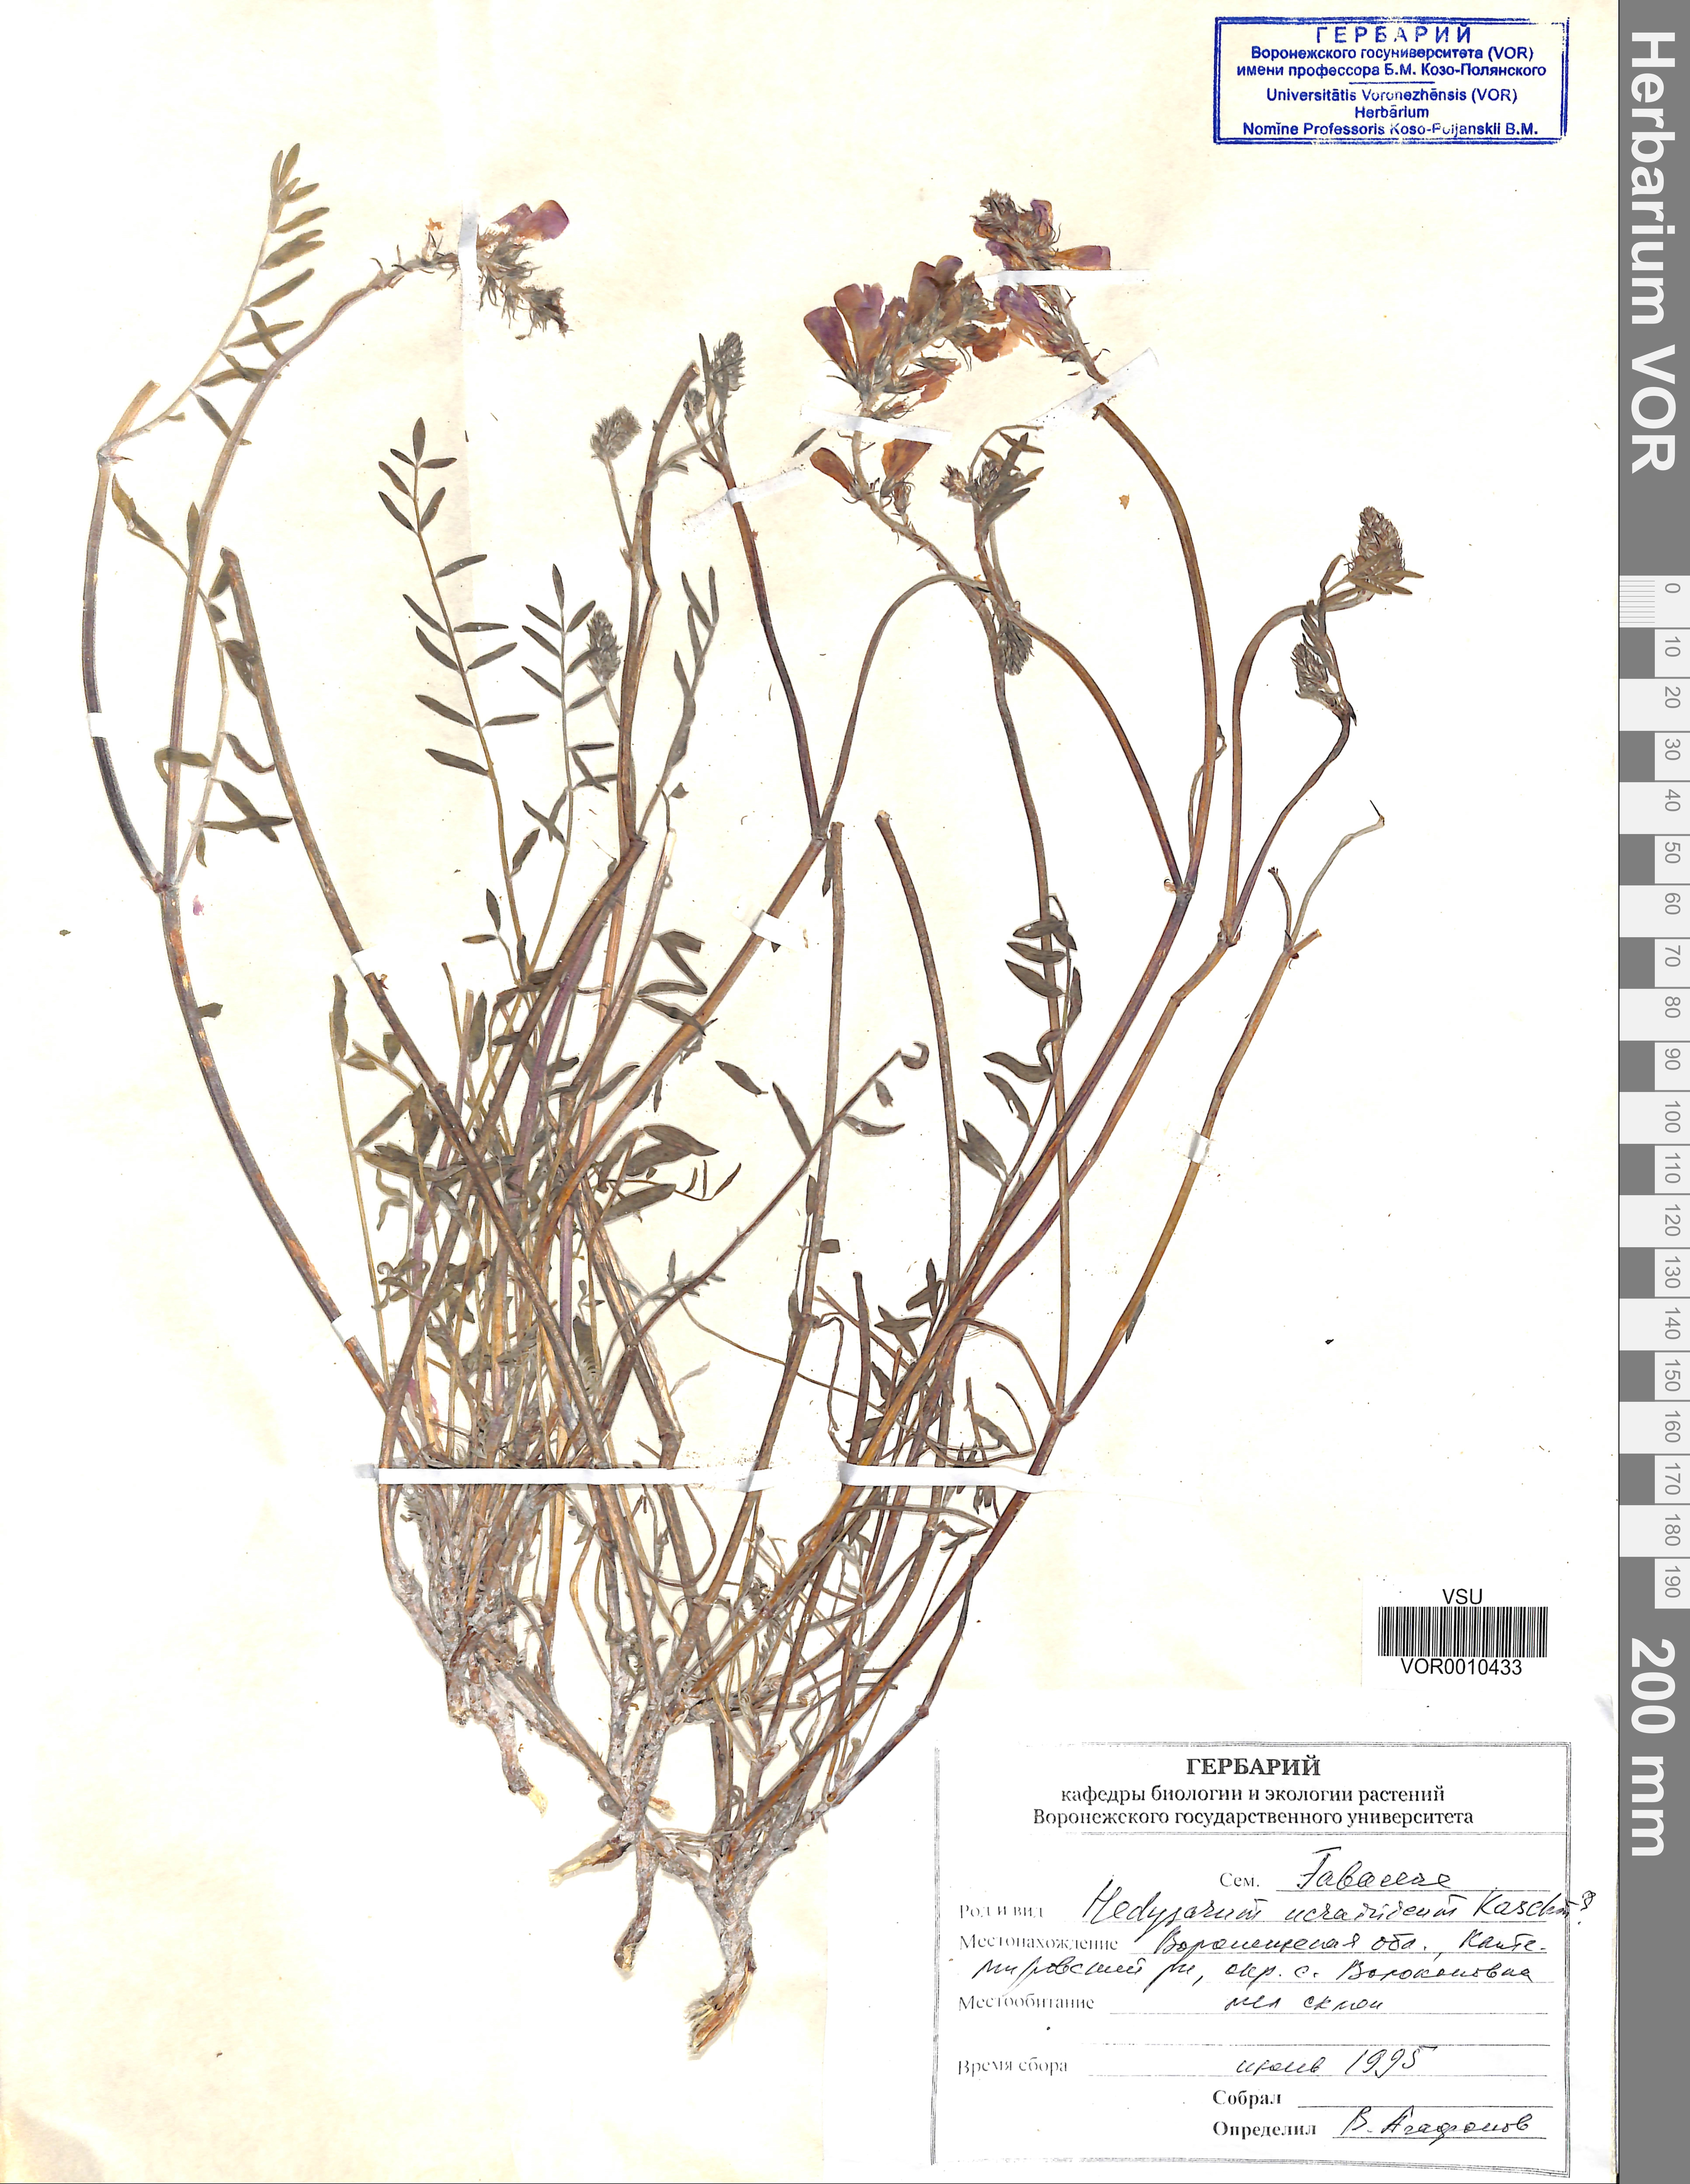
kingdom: Plantae
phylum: Tracheophyta
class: Magnoliopsida
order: Fabales
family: Fabaceae
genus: Hedysarum
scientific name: Hedysarum ucrainicum
